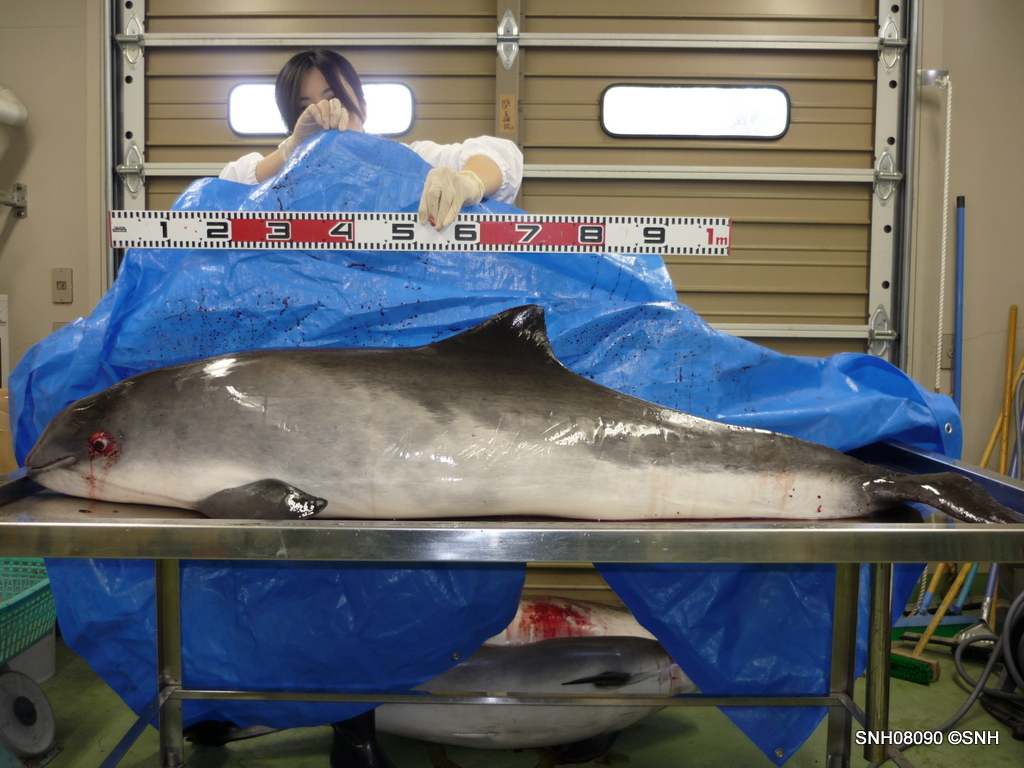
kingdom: Animalia
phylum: Chordata
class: Mammalia
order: Cetacea
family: Phocoenidae
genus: Phocoena
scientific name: Phocoena phocoena
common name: Harbour porpoise
